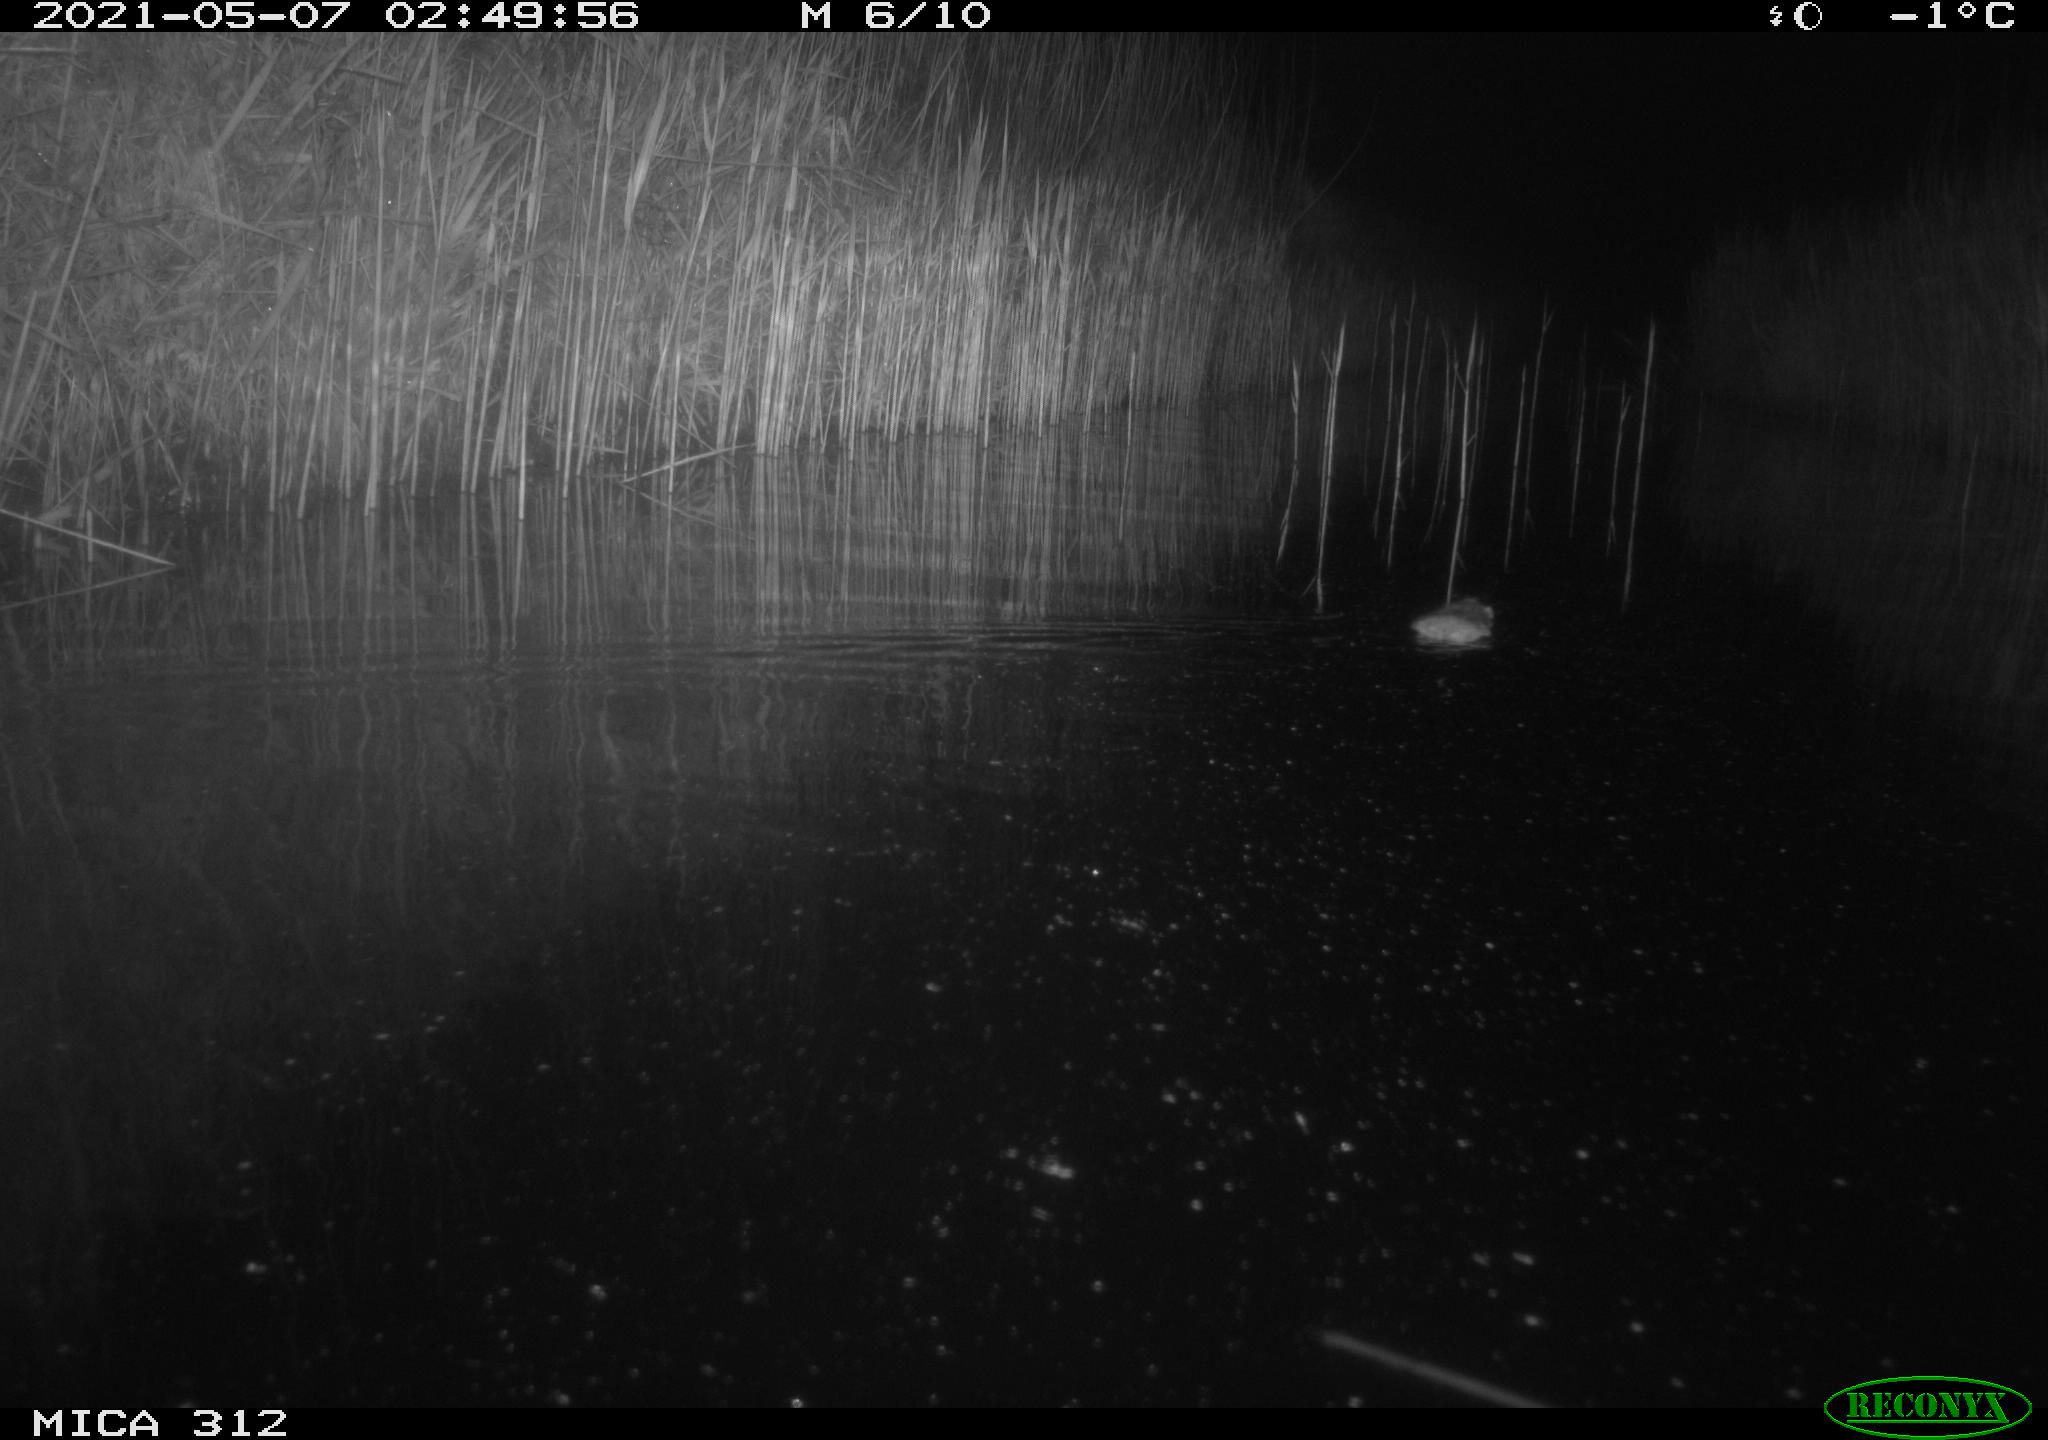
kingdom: Animalia
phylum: Chordata
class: Mammalia
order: Rodentia
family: Muridae
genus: Rattus
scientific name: Rattus norvegicus
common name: Brown rat
